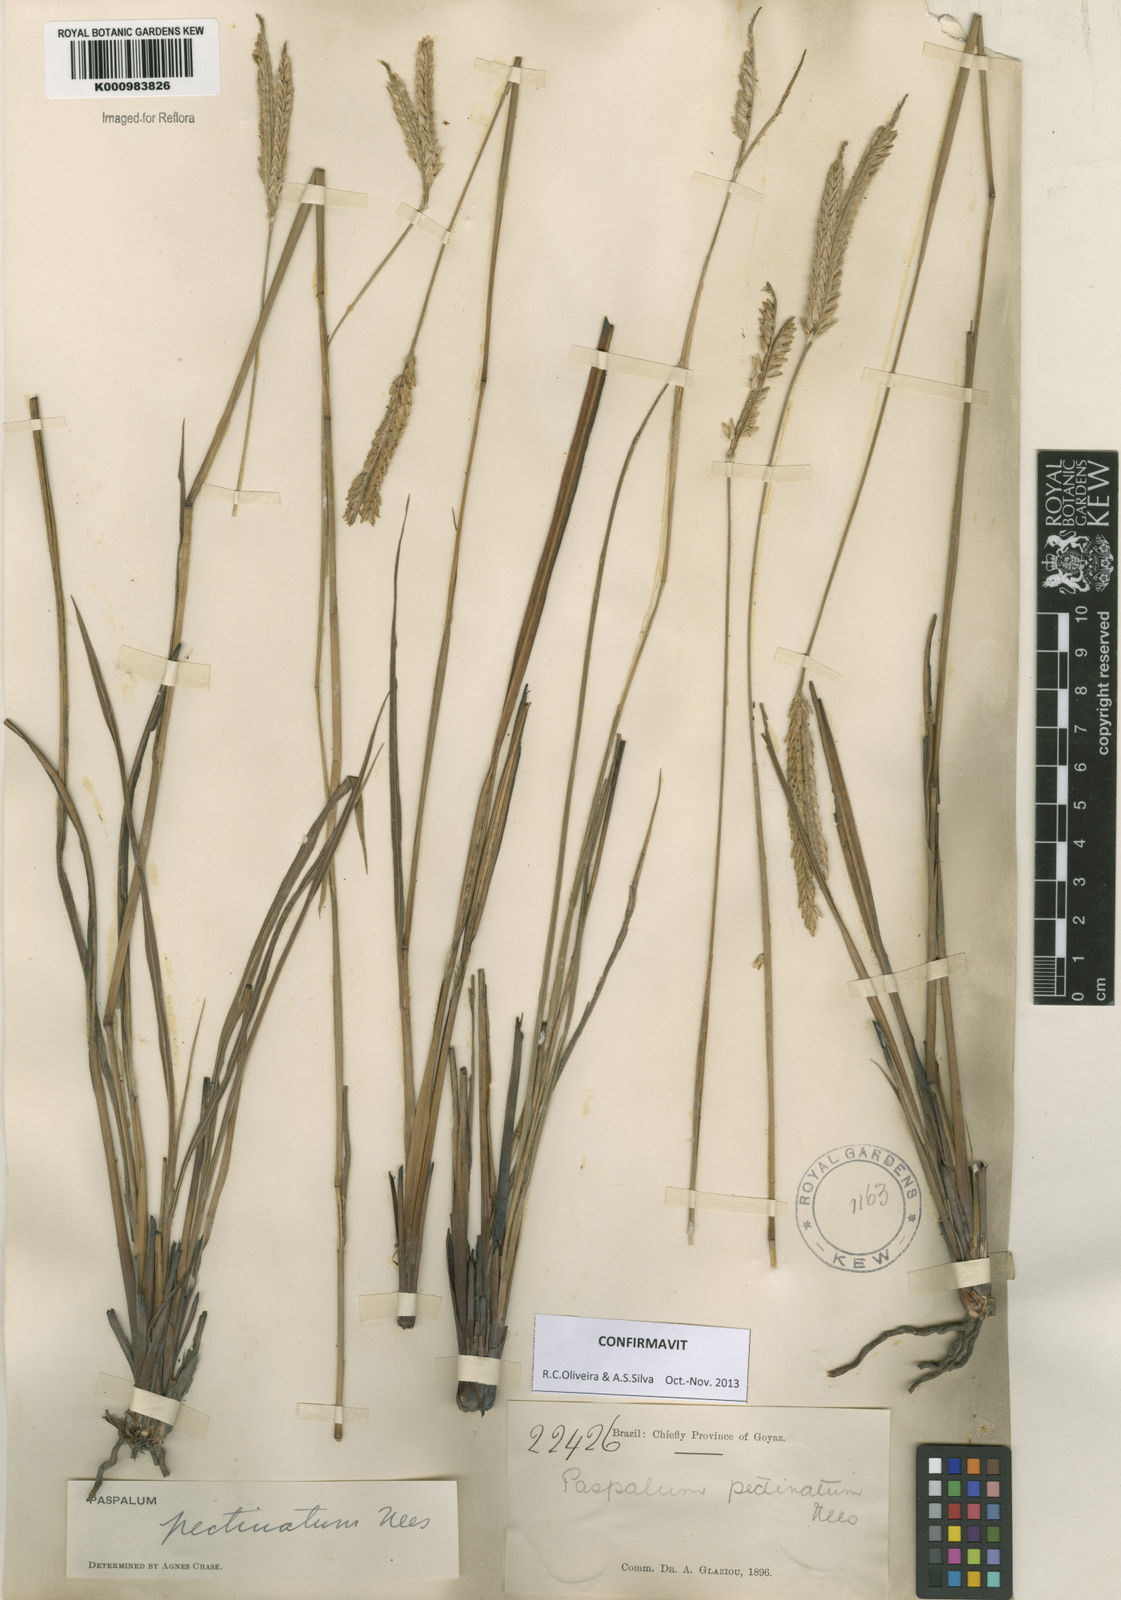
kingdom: Plantae
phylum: Tracheophyta
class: Liliopsida
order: Poales
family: Poaceae
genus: Paspalum
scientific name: Paspalum
